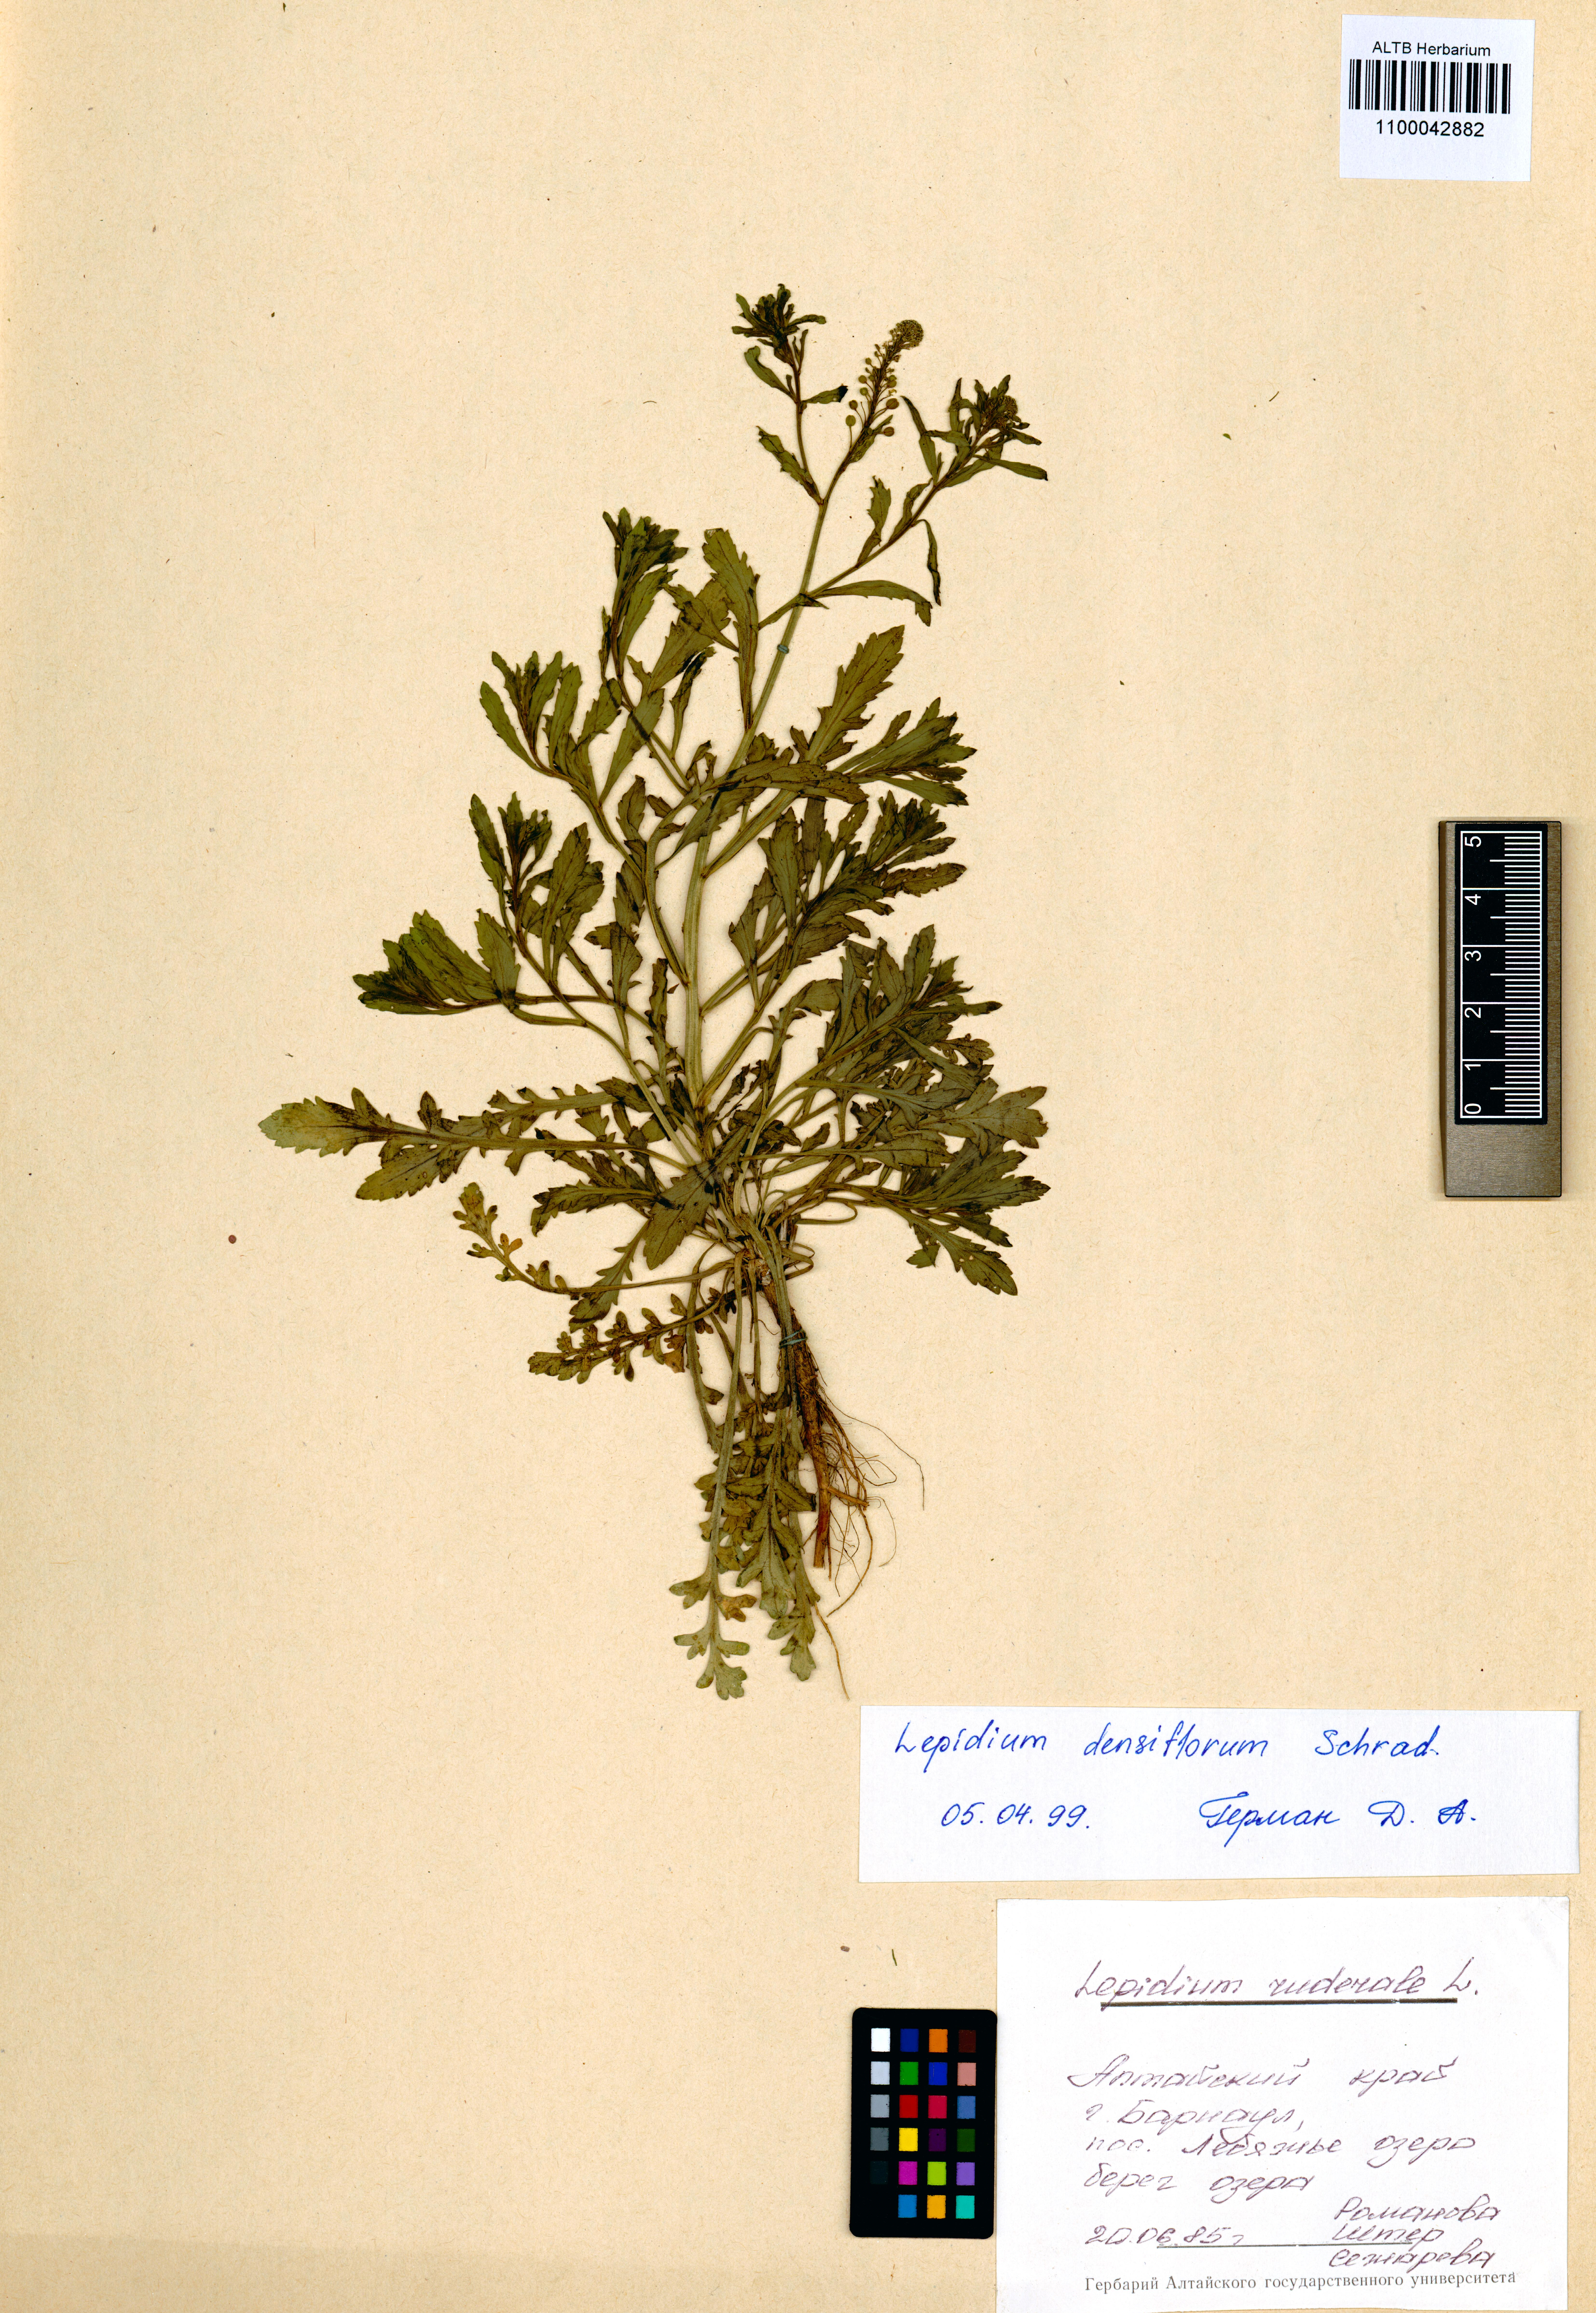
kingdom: Plantae
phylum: Tracheophyta
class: Magnoliopsida
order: Brassicales
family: Brassicaceae
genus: Lepidium
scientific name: Lepidium densiflorum
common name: Miner's pepperwort
